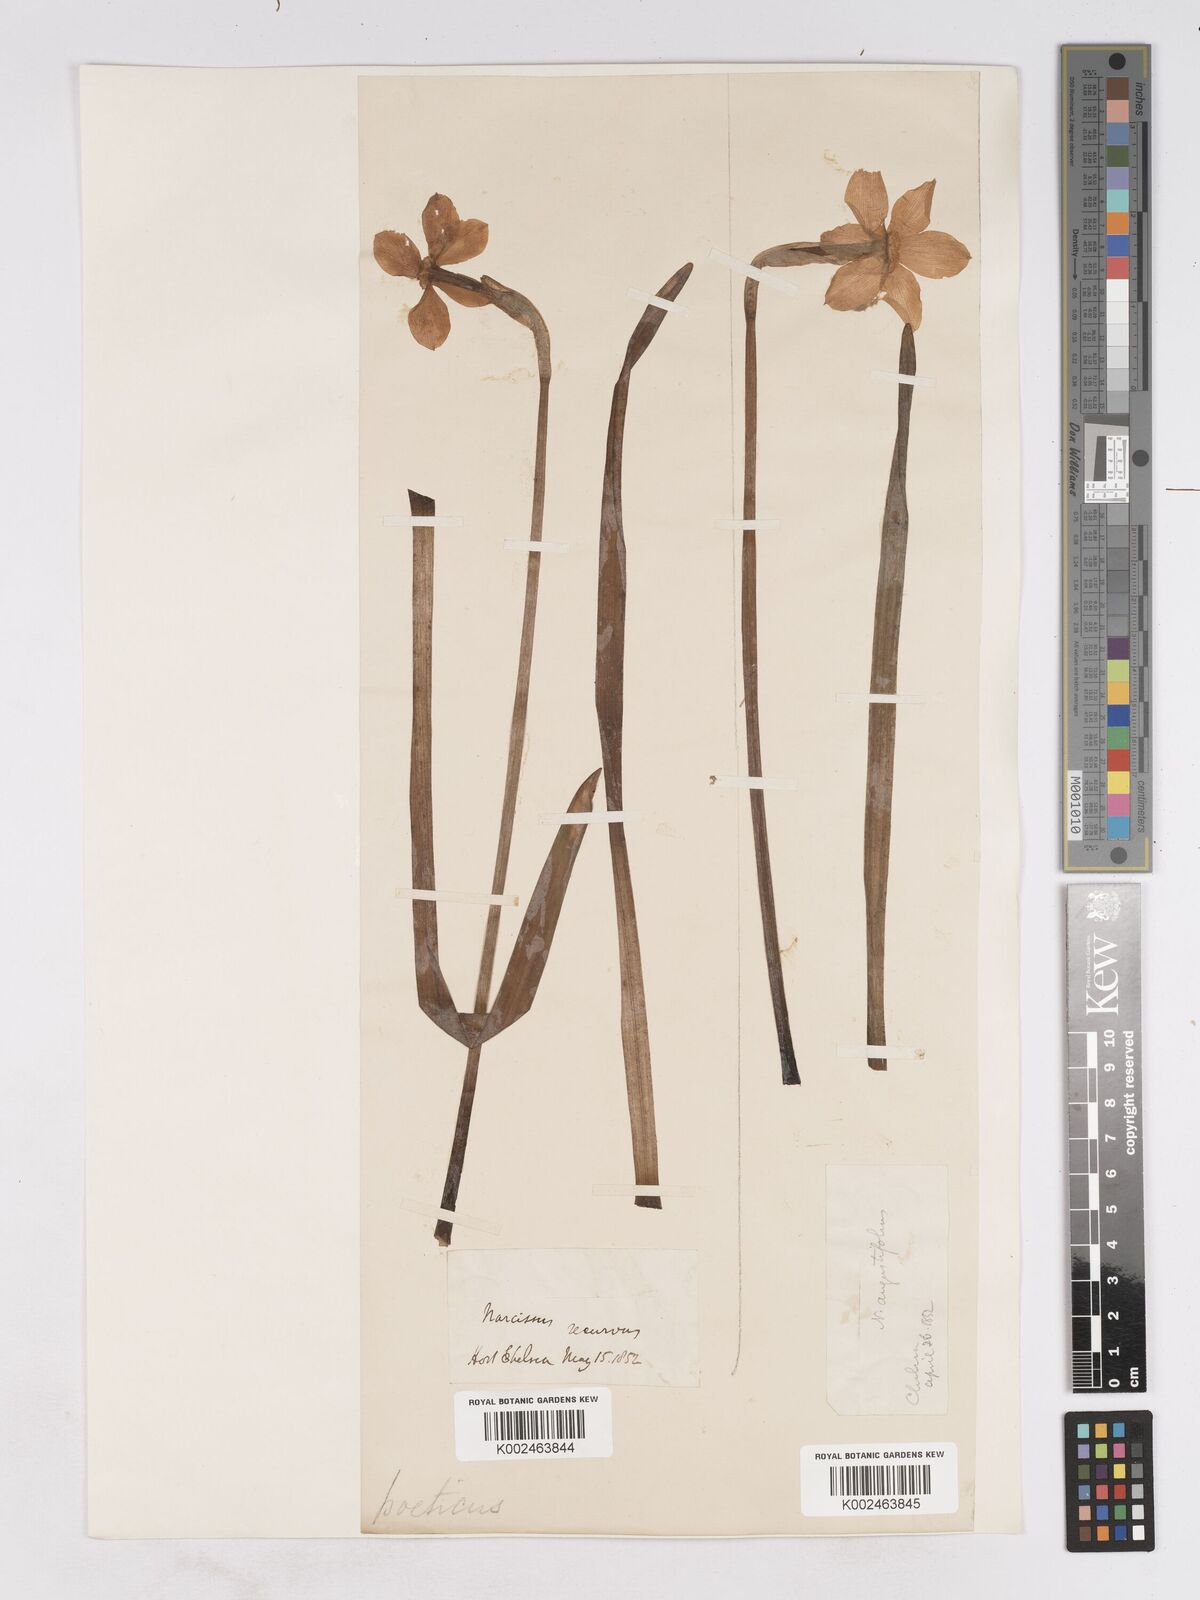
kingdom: Plantae
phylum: Tracheophyta
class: Liliopsida
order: Asparagales
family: Amaryllidaceae
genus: Narcissus
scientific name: Narcissus poeticus
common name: Pheasant's-eye daffodil
